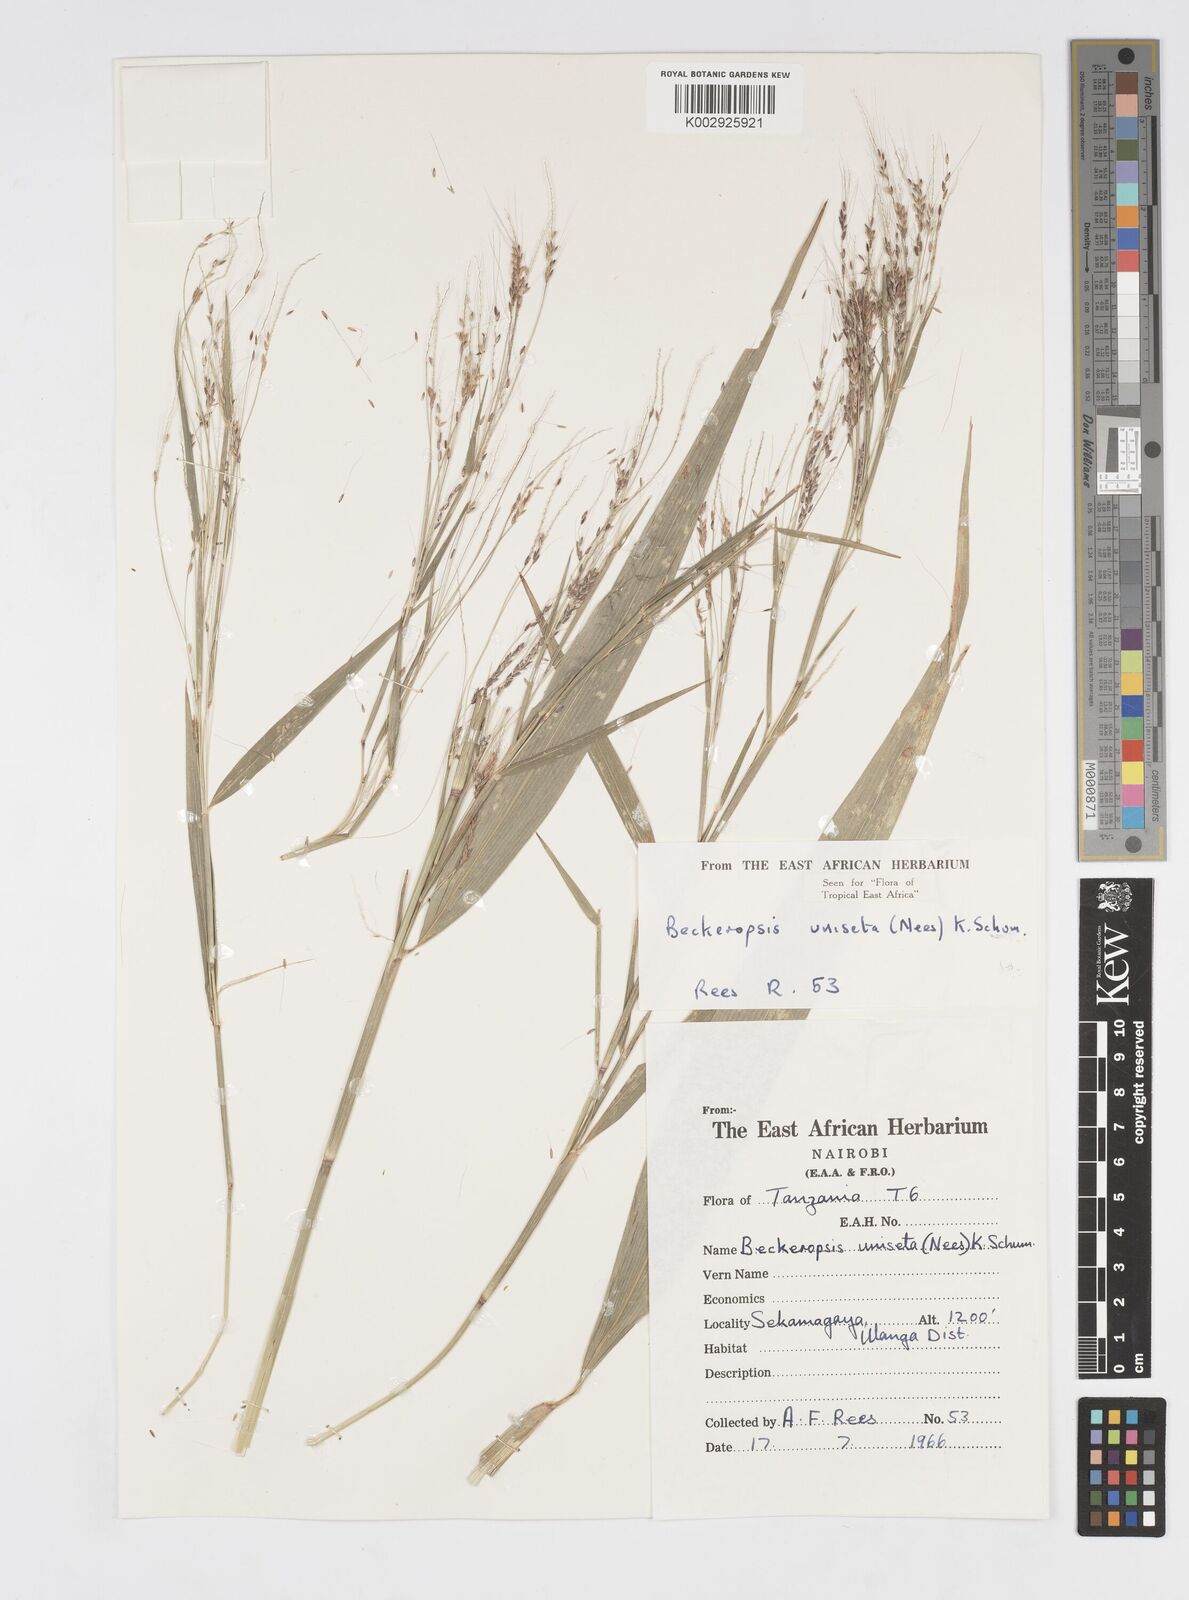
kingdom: Plantae
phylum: Tracheophyta
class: Liliopsida
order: Poales
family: Poaceae
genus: Cenchrus
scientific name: Cenchrus unisetus
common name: Natal grass
